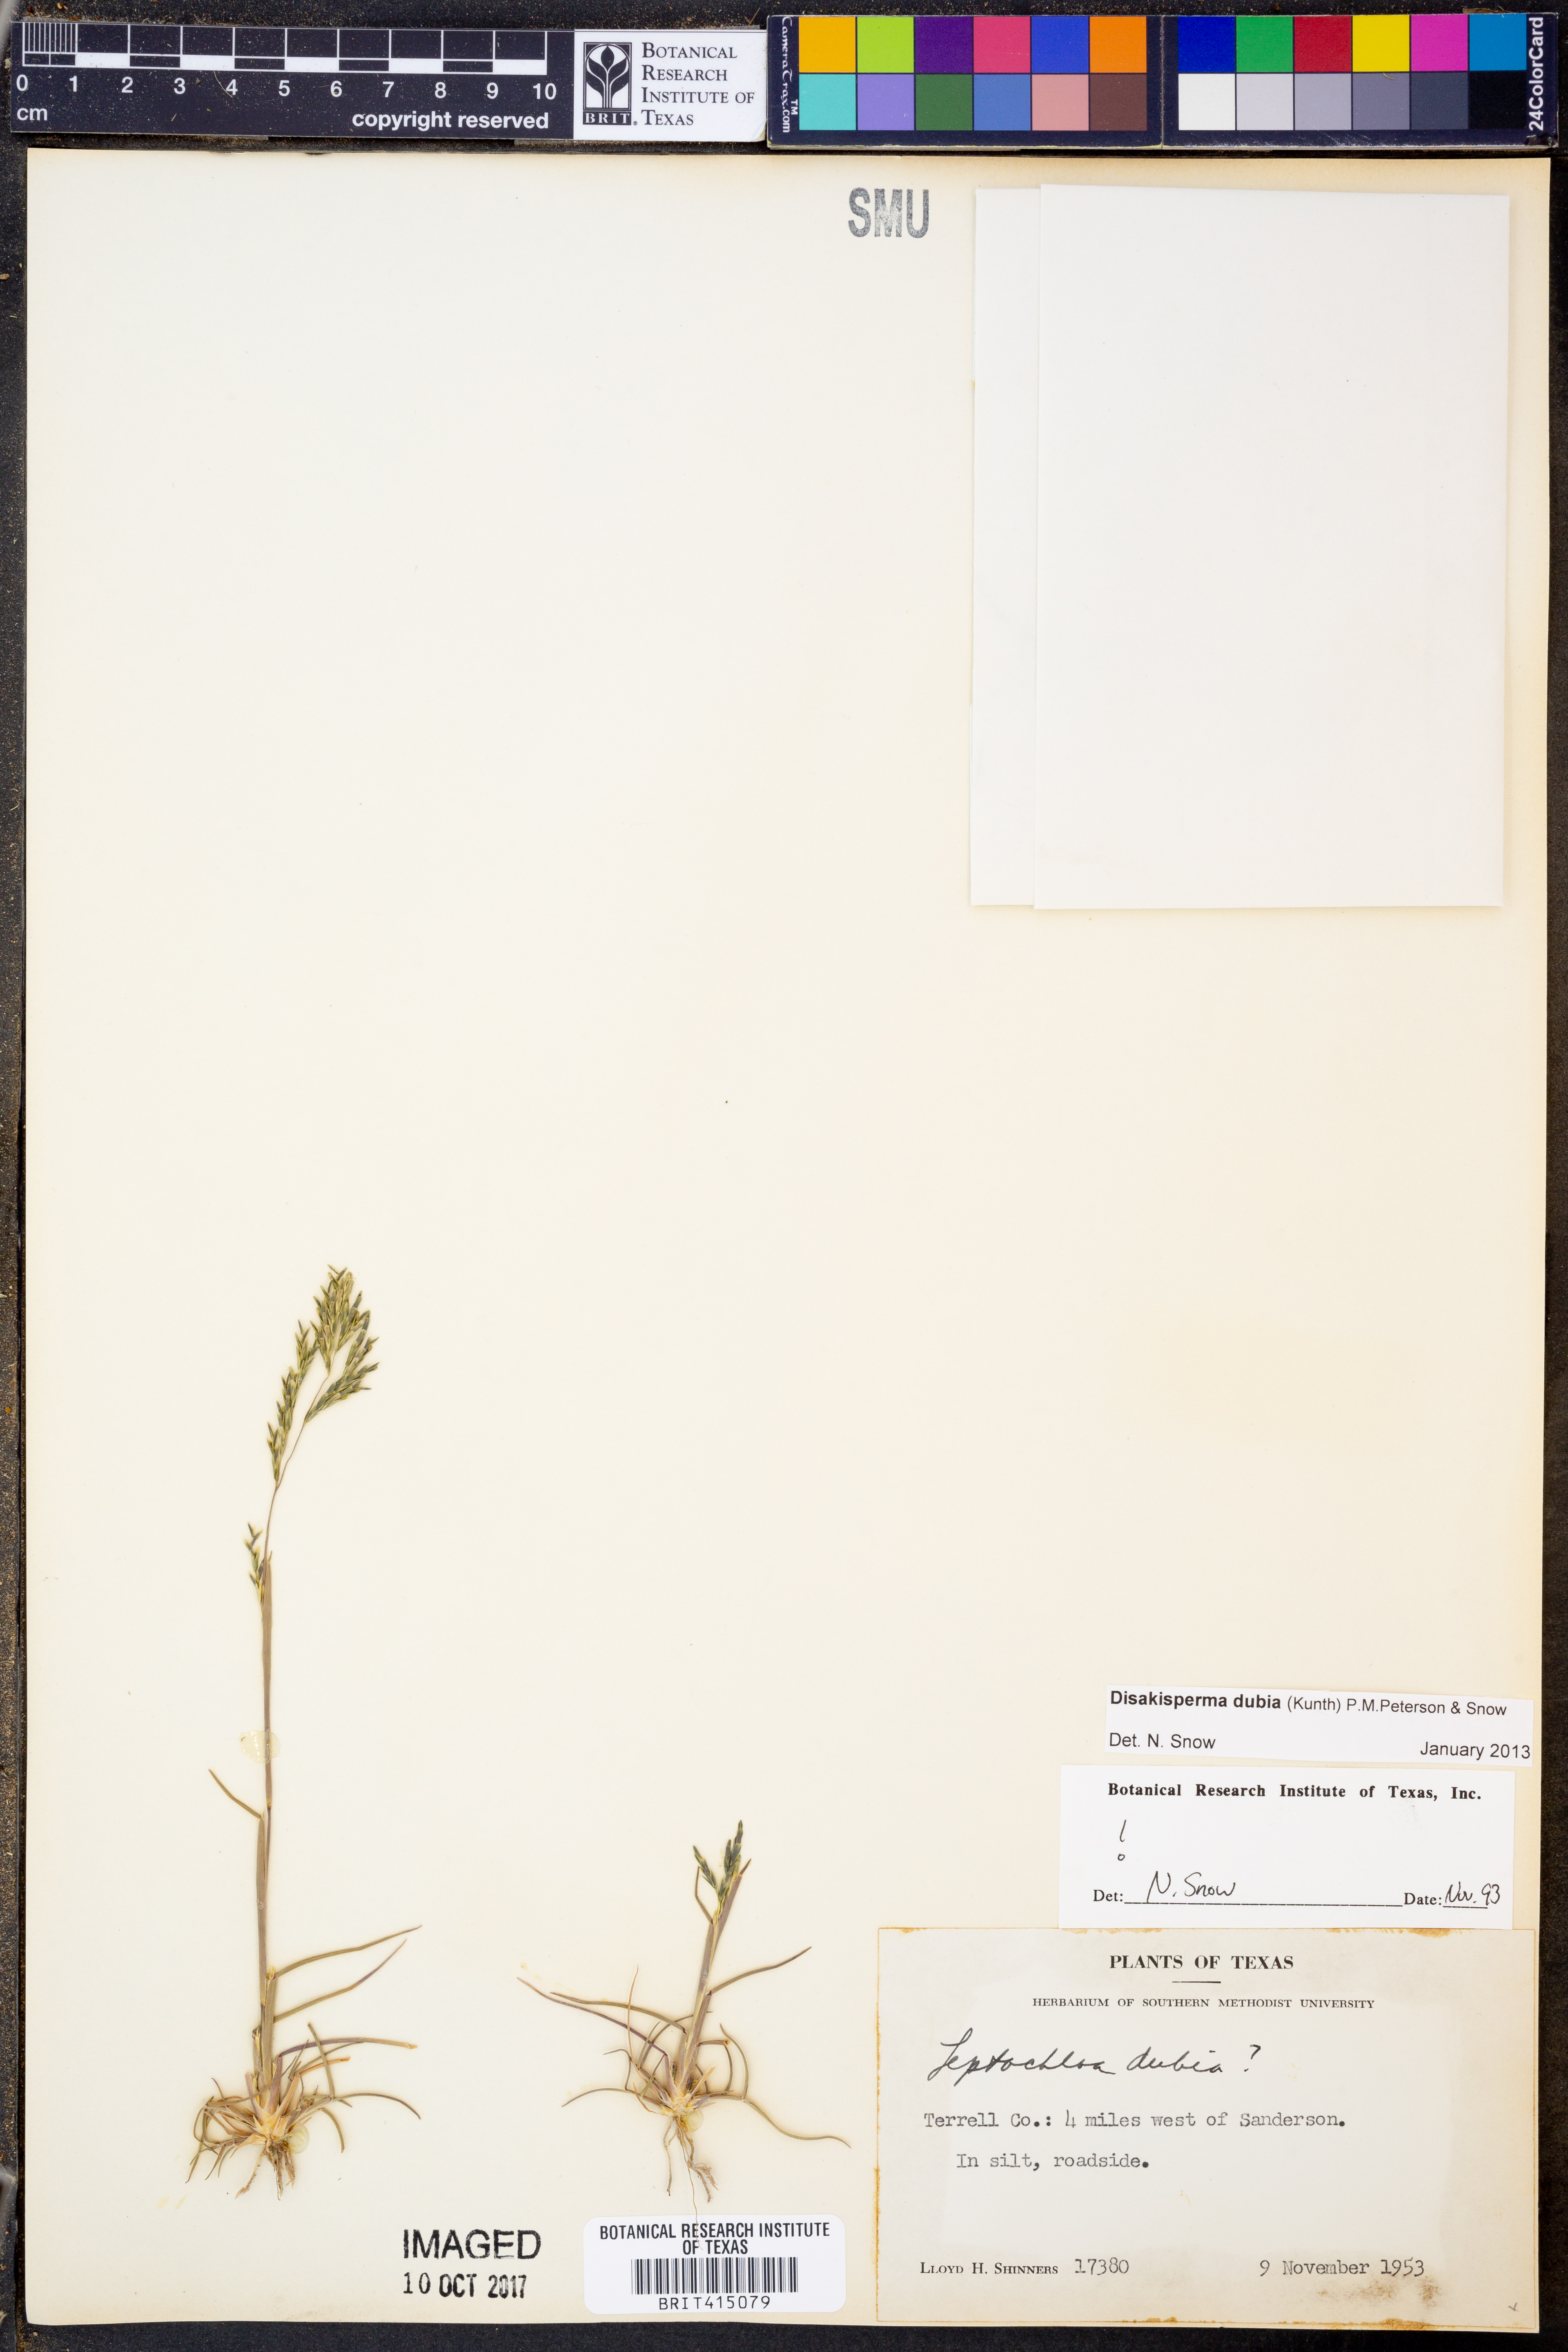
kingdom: Plantae
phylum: Tracheophyta
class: Liliopsida
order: Poales
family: Poaceae
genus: Disakisperma
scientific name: Disakisperma dubium
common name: Green sprangletop
